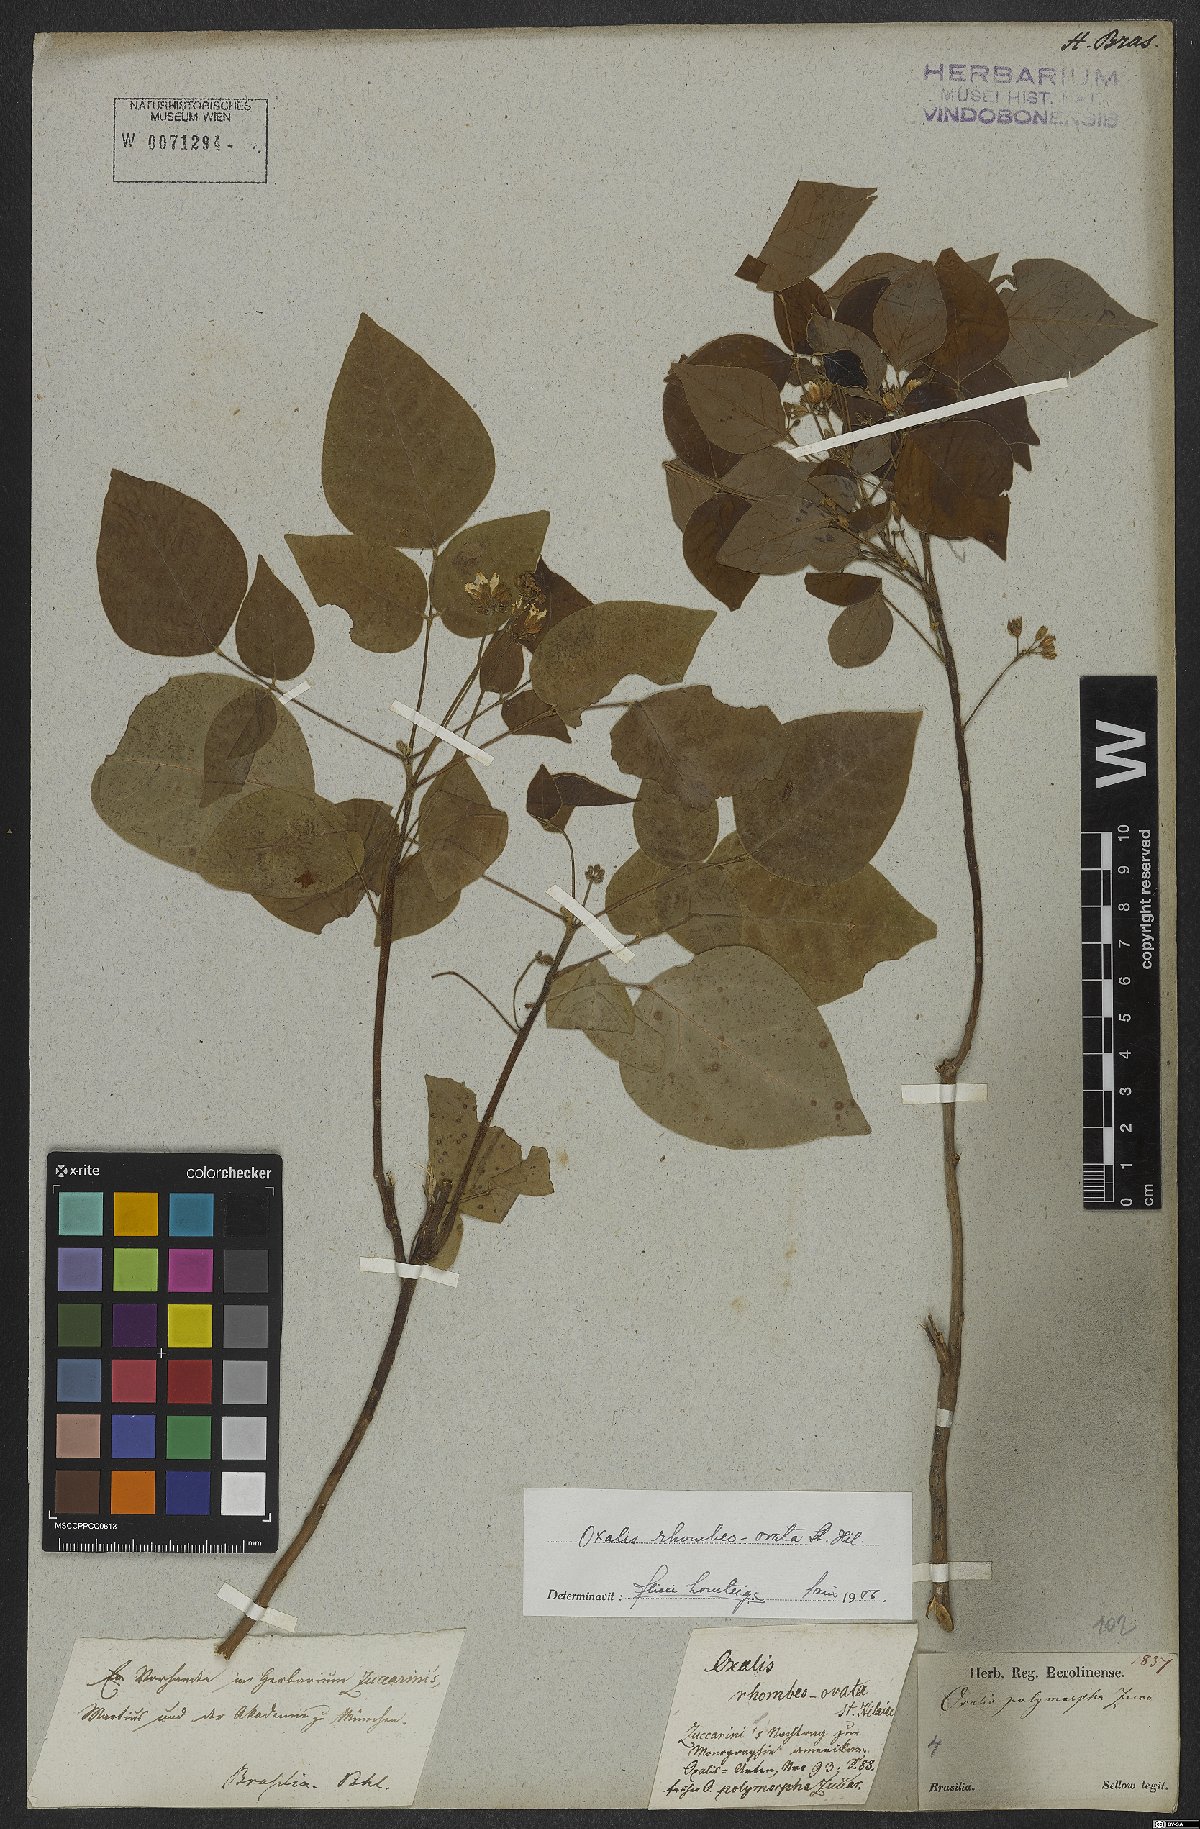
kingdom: Plantae
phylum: Tracheophyta
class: Magnoliopsida
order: Oxalidales
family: Oxalidaceae
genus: Oxalis
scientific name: Oxalis rhombeo-ovata
